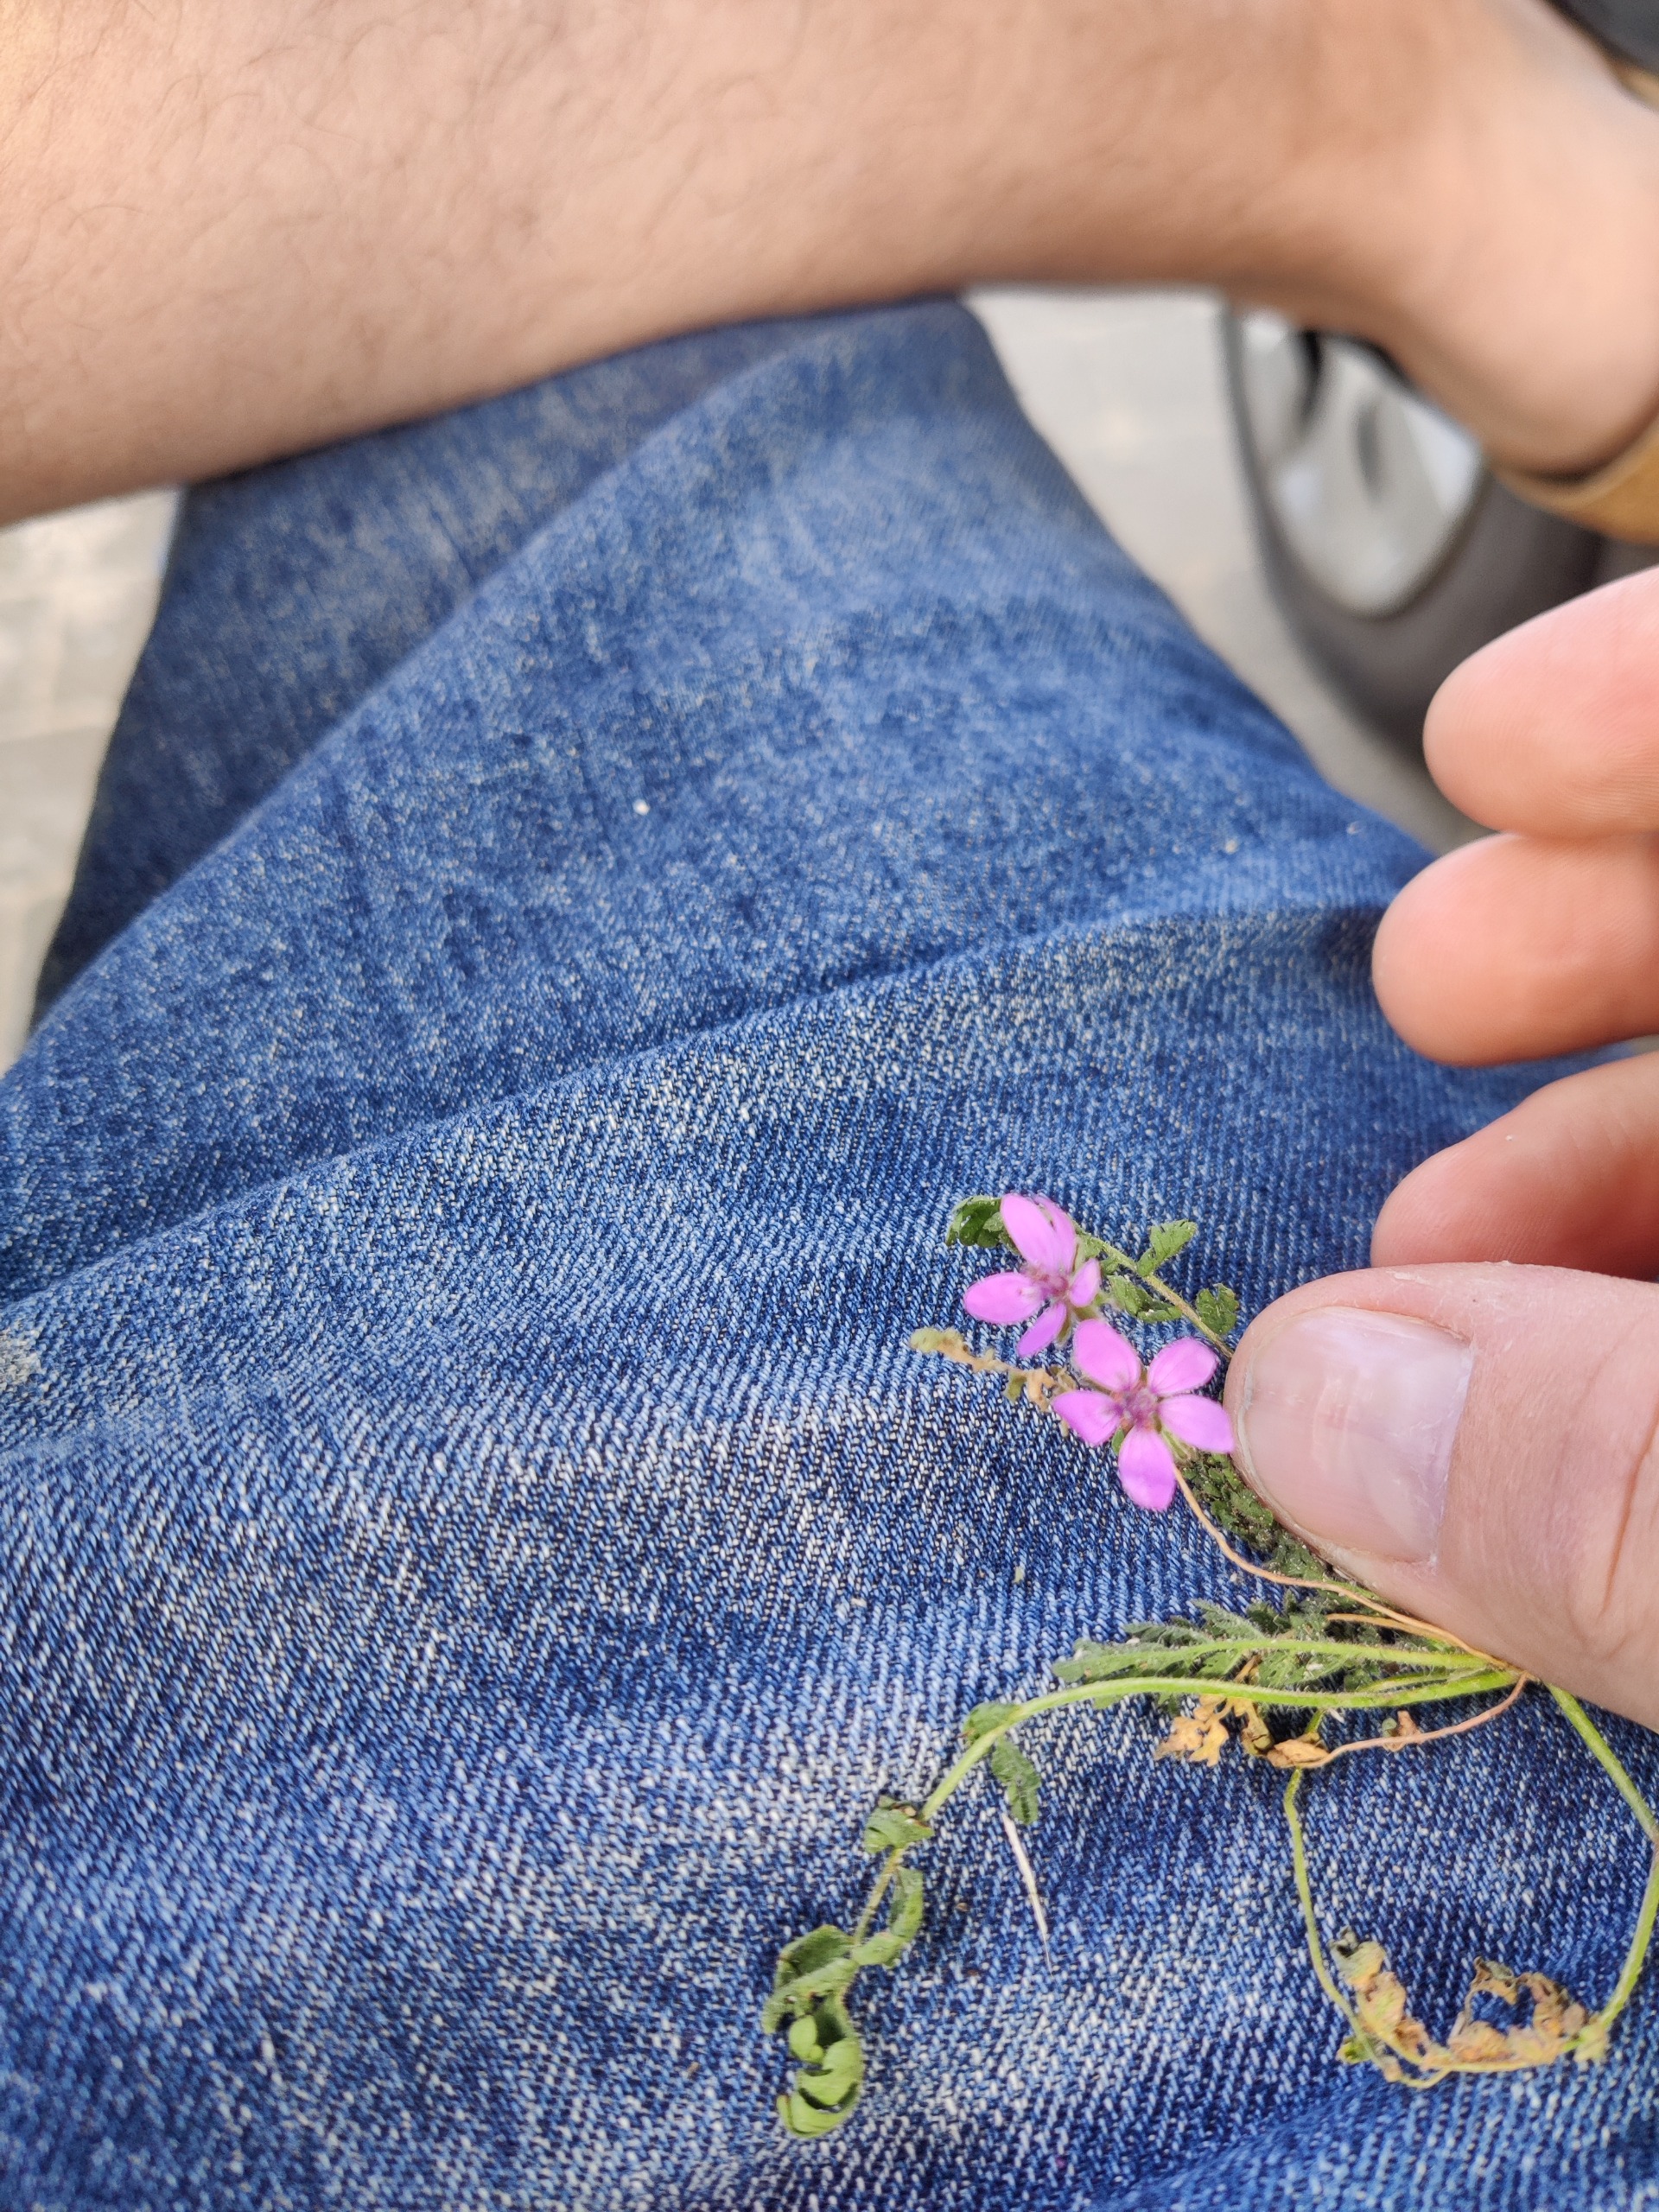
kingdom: Plantae
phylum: Tracheophyta
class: Magnoliopsida
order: Geraniales
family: Geraniaceae
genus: Erodium
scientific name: Erodium cicutarium
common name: Hejrenæb
